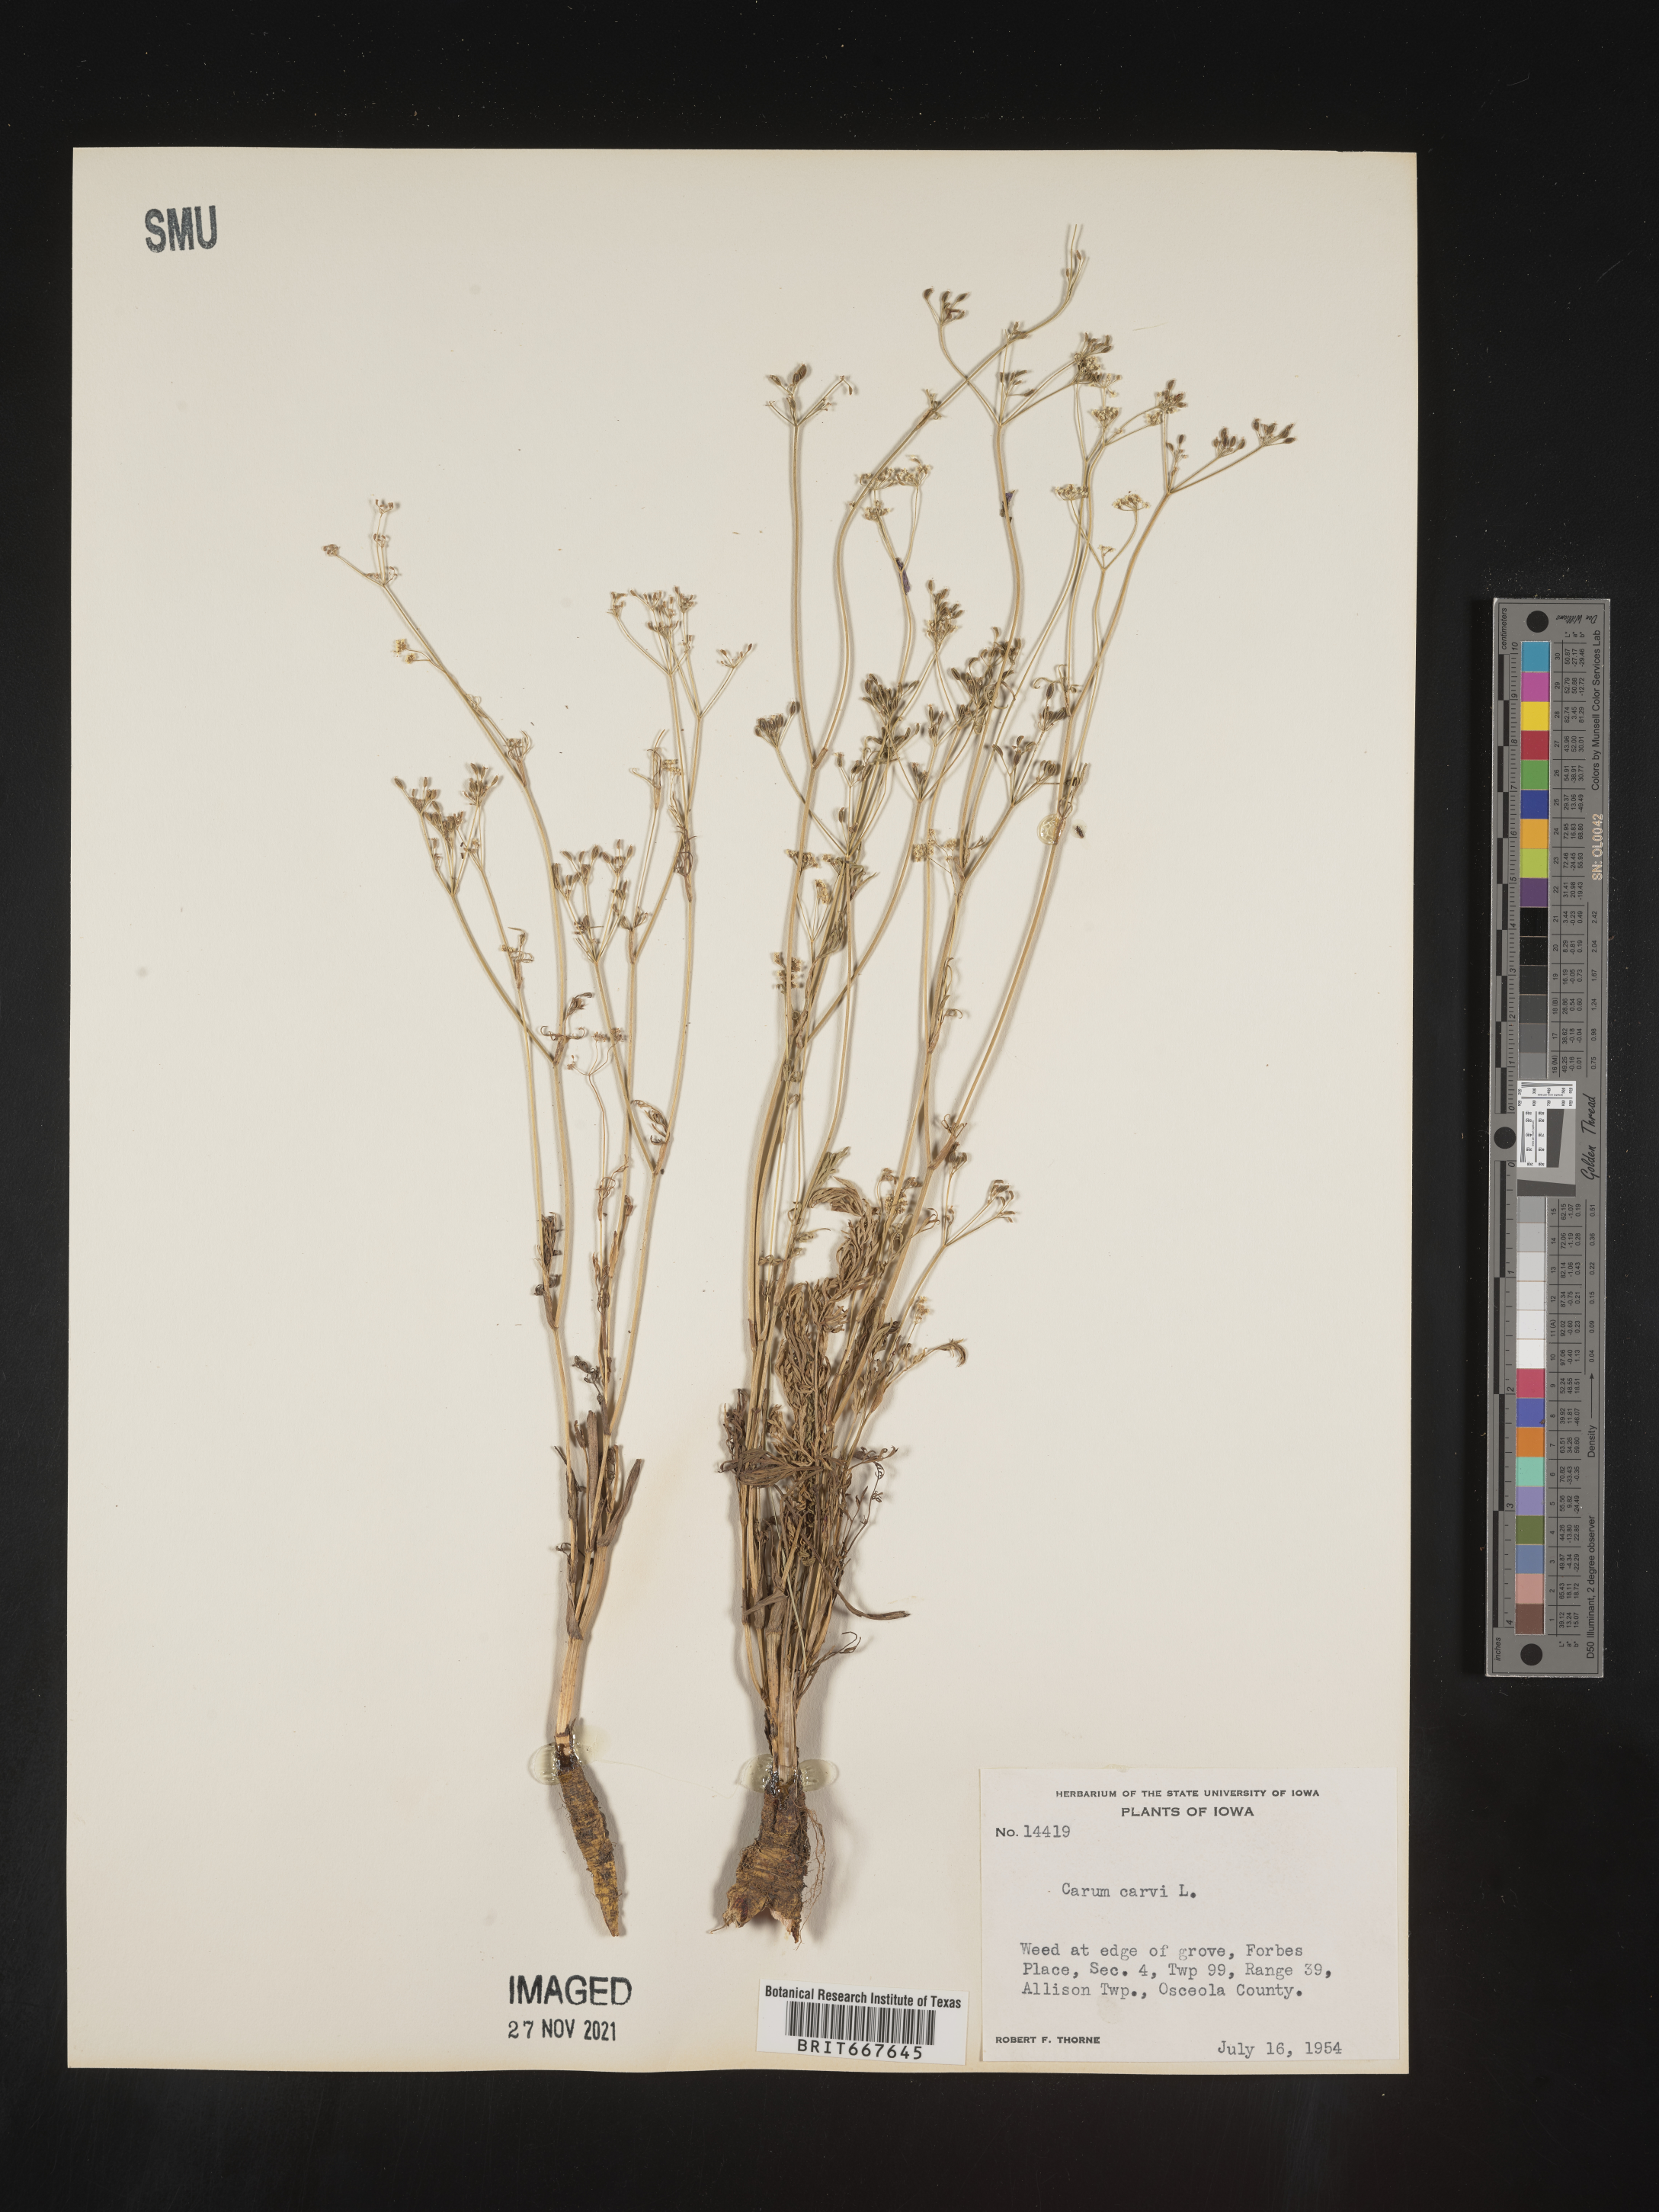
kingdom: Plantae
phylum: Tracheophyta
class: Magnoliopsida
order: Apiales
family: Apiaceae
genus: Carum
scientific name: Carum
